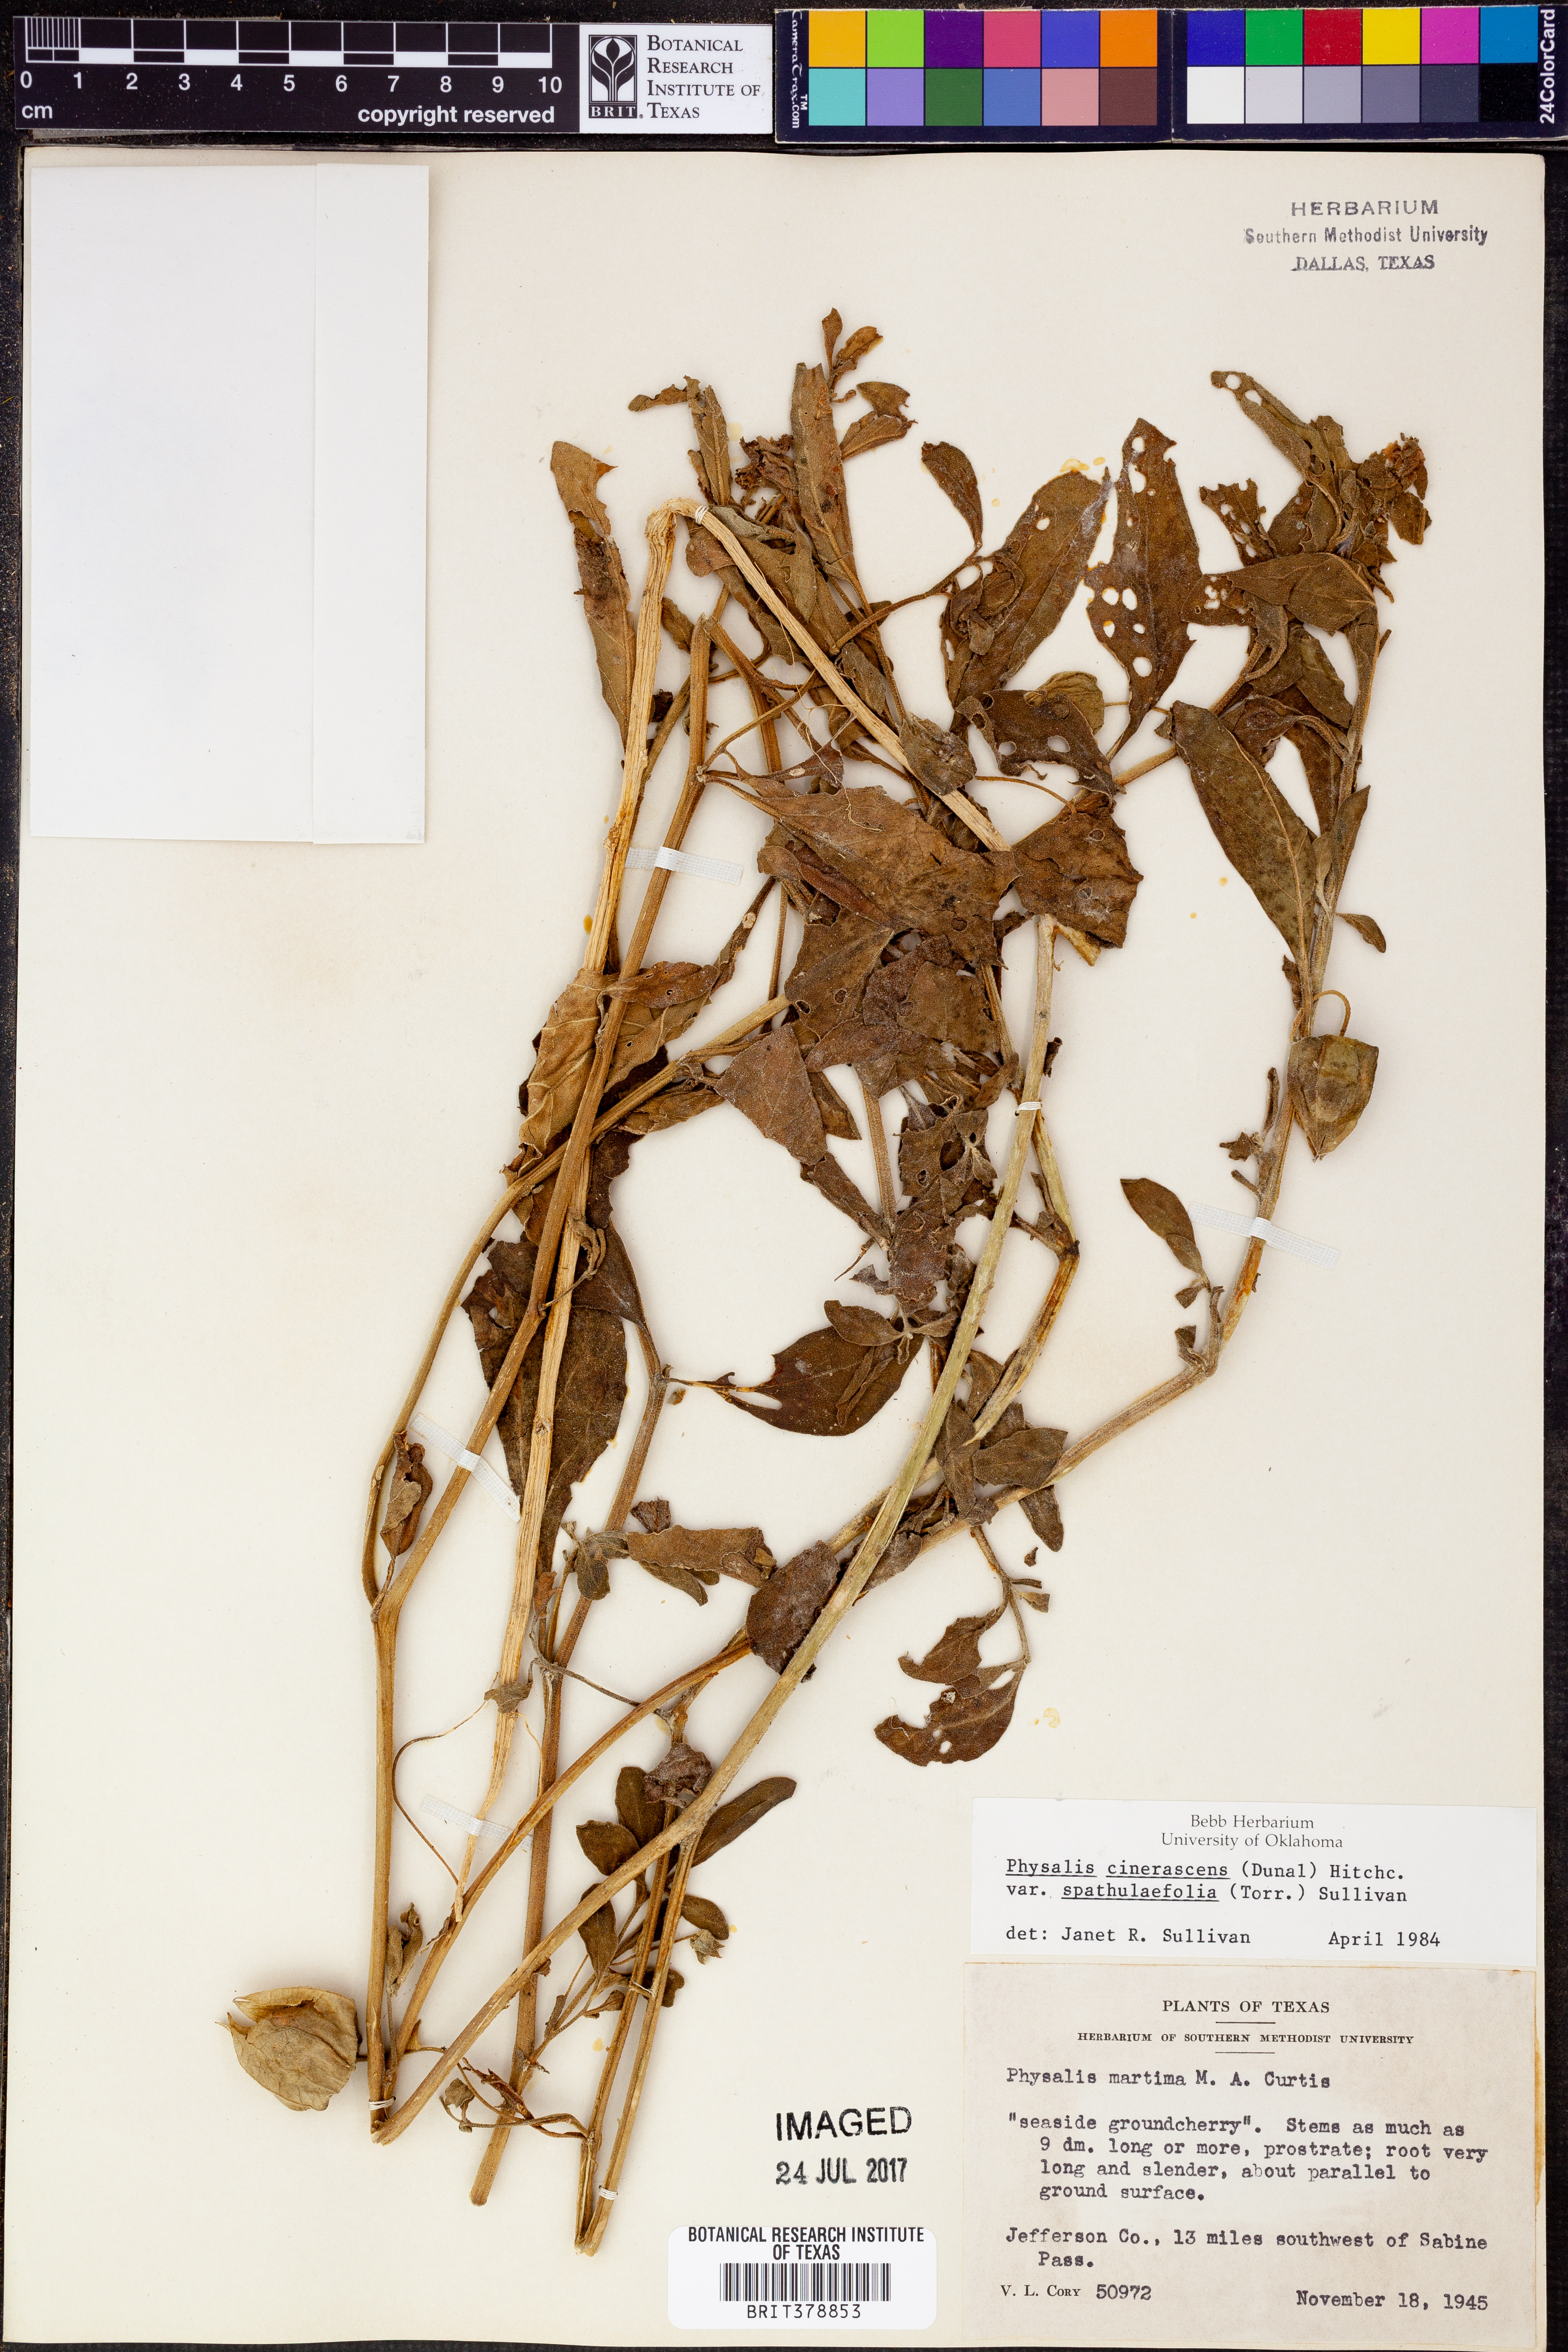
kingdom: Plantae
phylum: Tracheophyta
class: Magnoliopsida
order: Solanales
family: Solanaceae
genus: Physalis
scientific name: Physalis cinerascens
